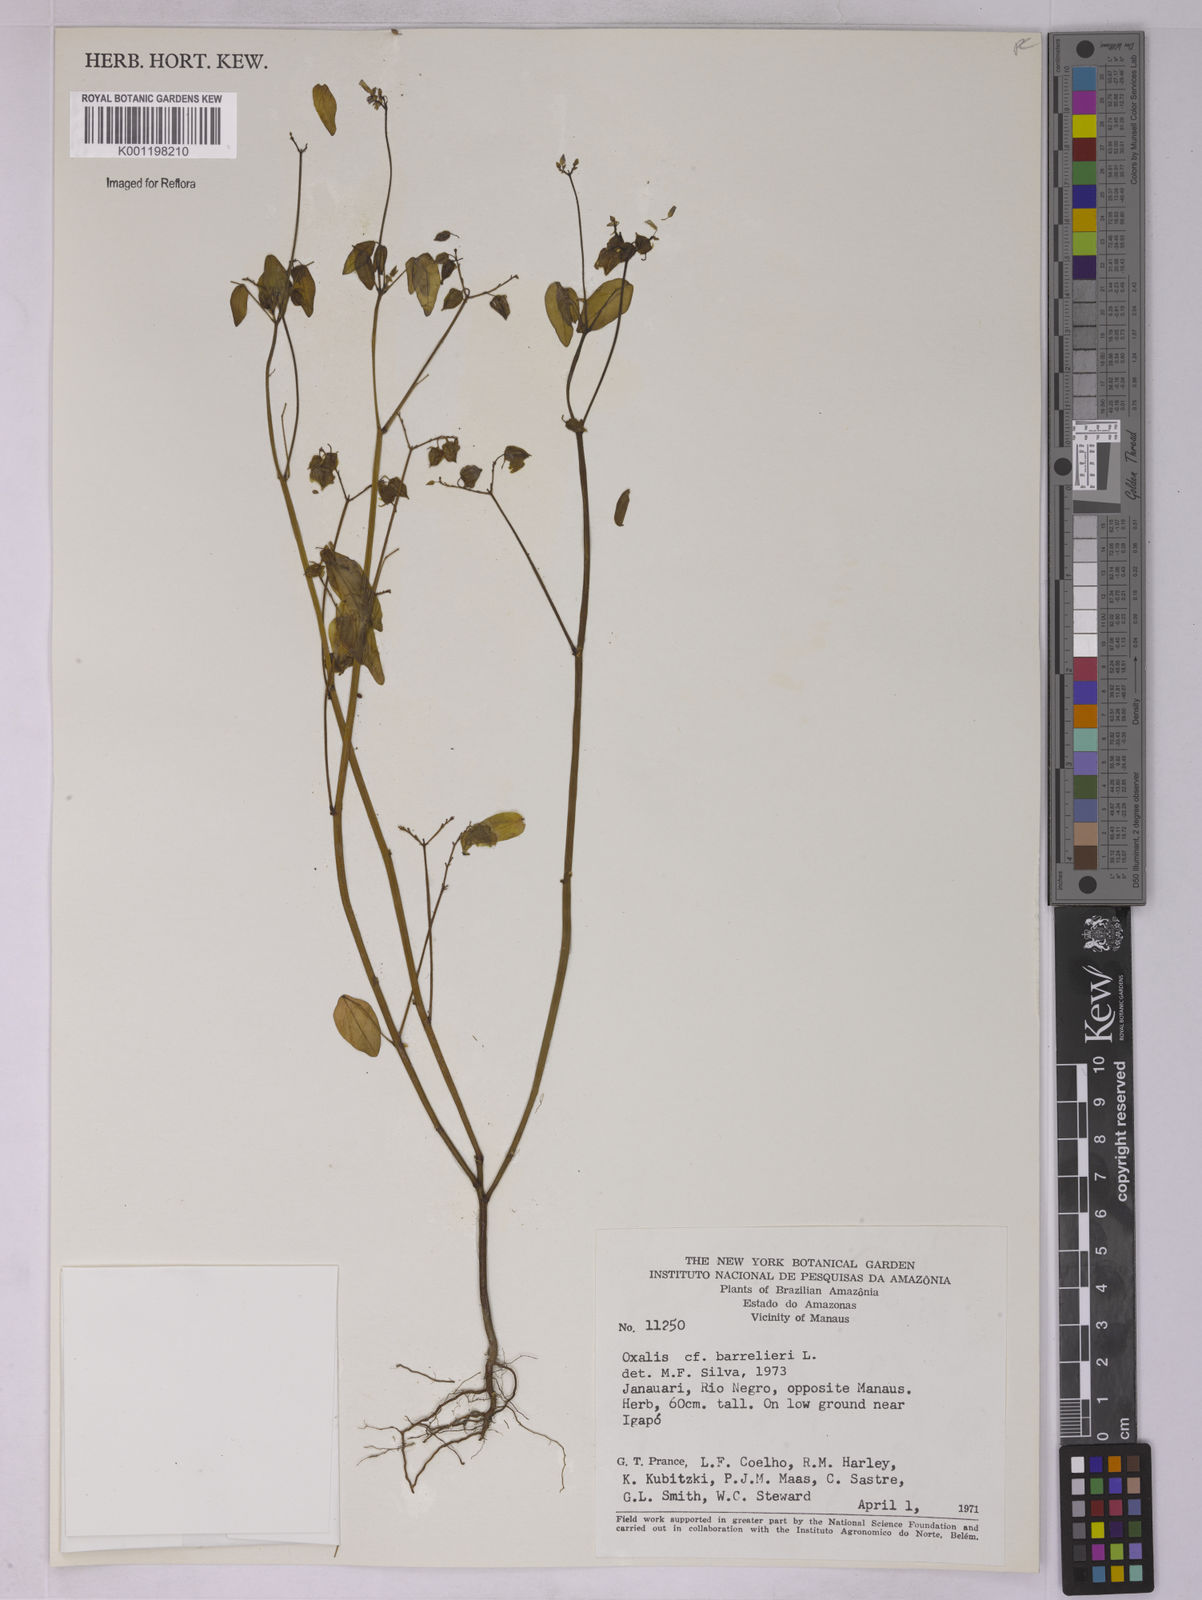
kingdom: Plantae
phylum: Tracheophyta
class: Magnoliopsida
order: Oxalidales
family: Oxalidaceae
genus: Oxalis
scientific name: Oxalis barrelieri
